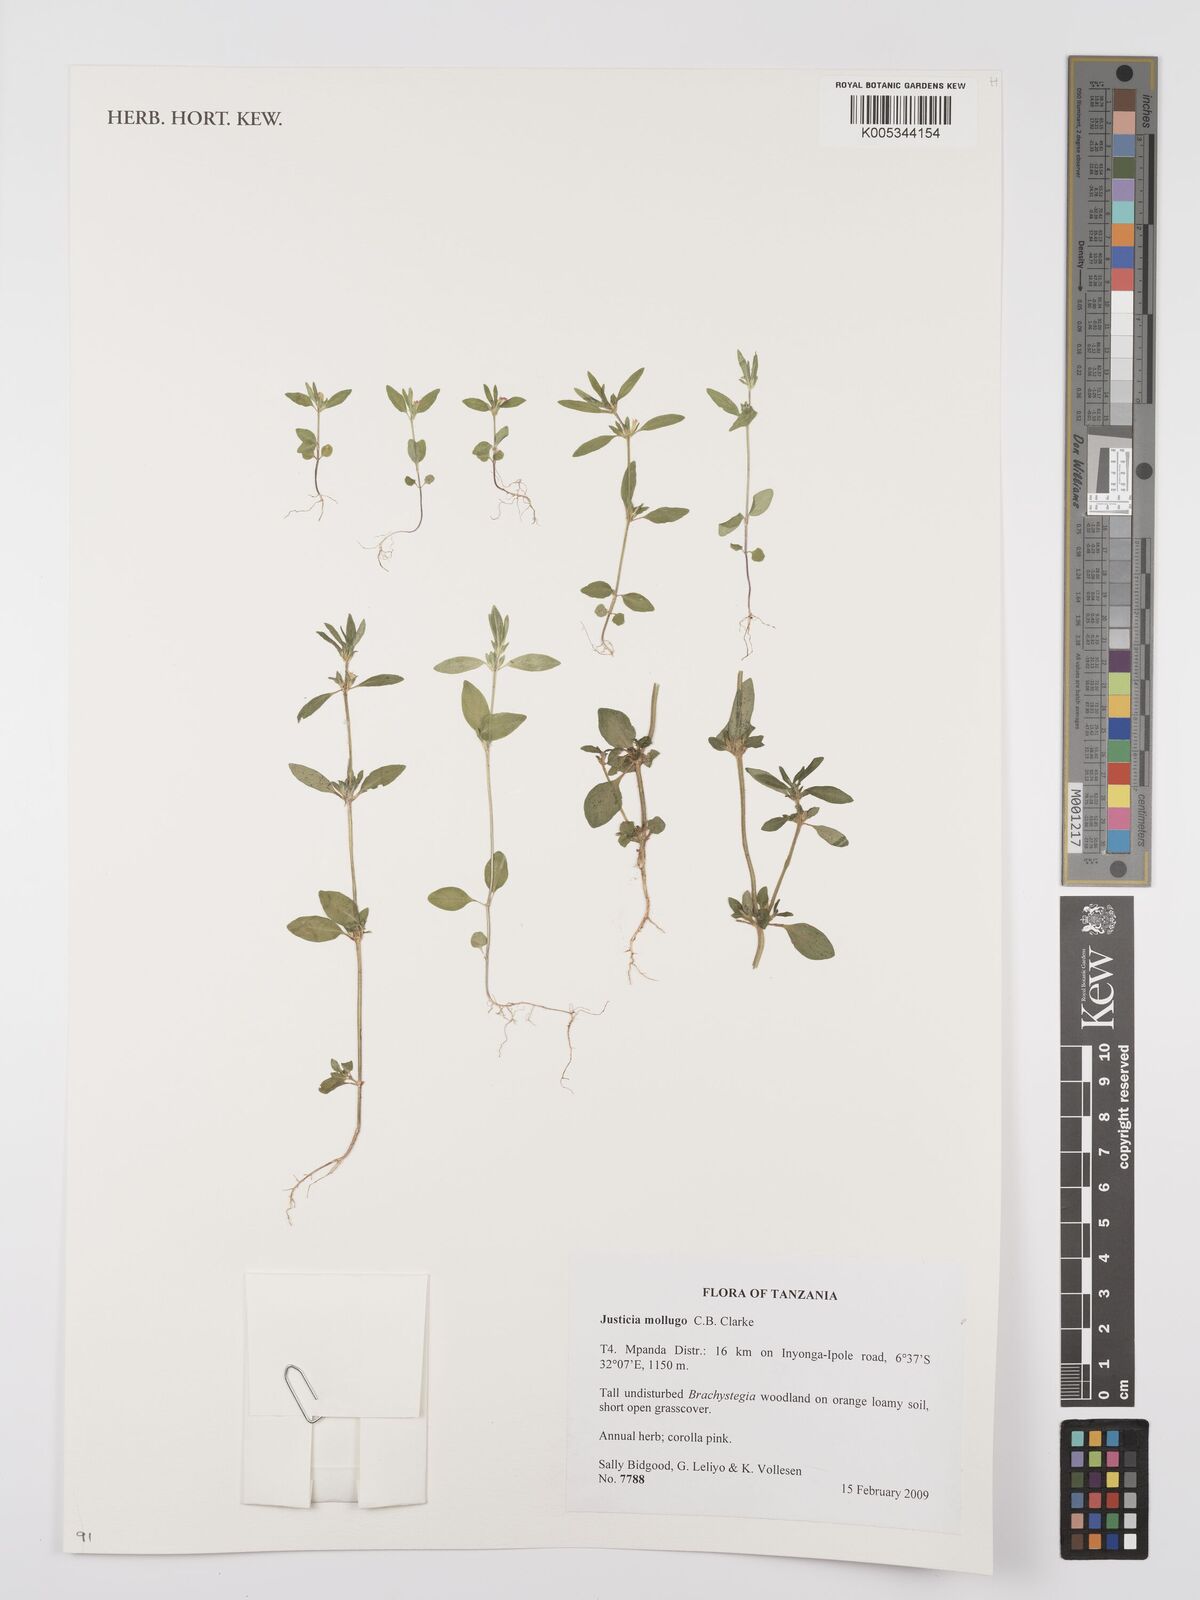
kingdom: Plantae
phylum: Tracheophyta
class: Magnoliopsida
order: Lamiales
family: Acanthaceae
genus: Justicia
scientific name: Justicia mollugo
